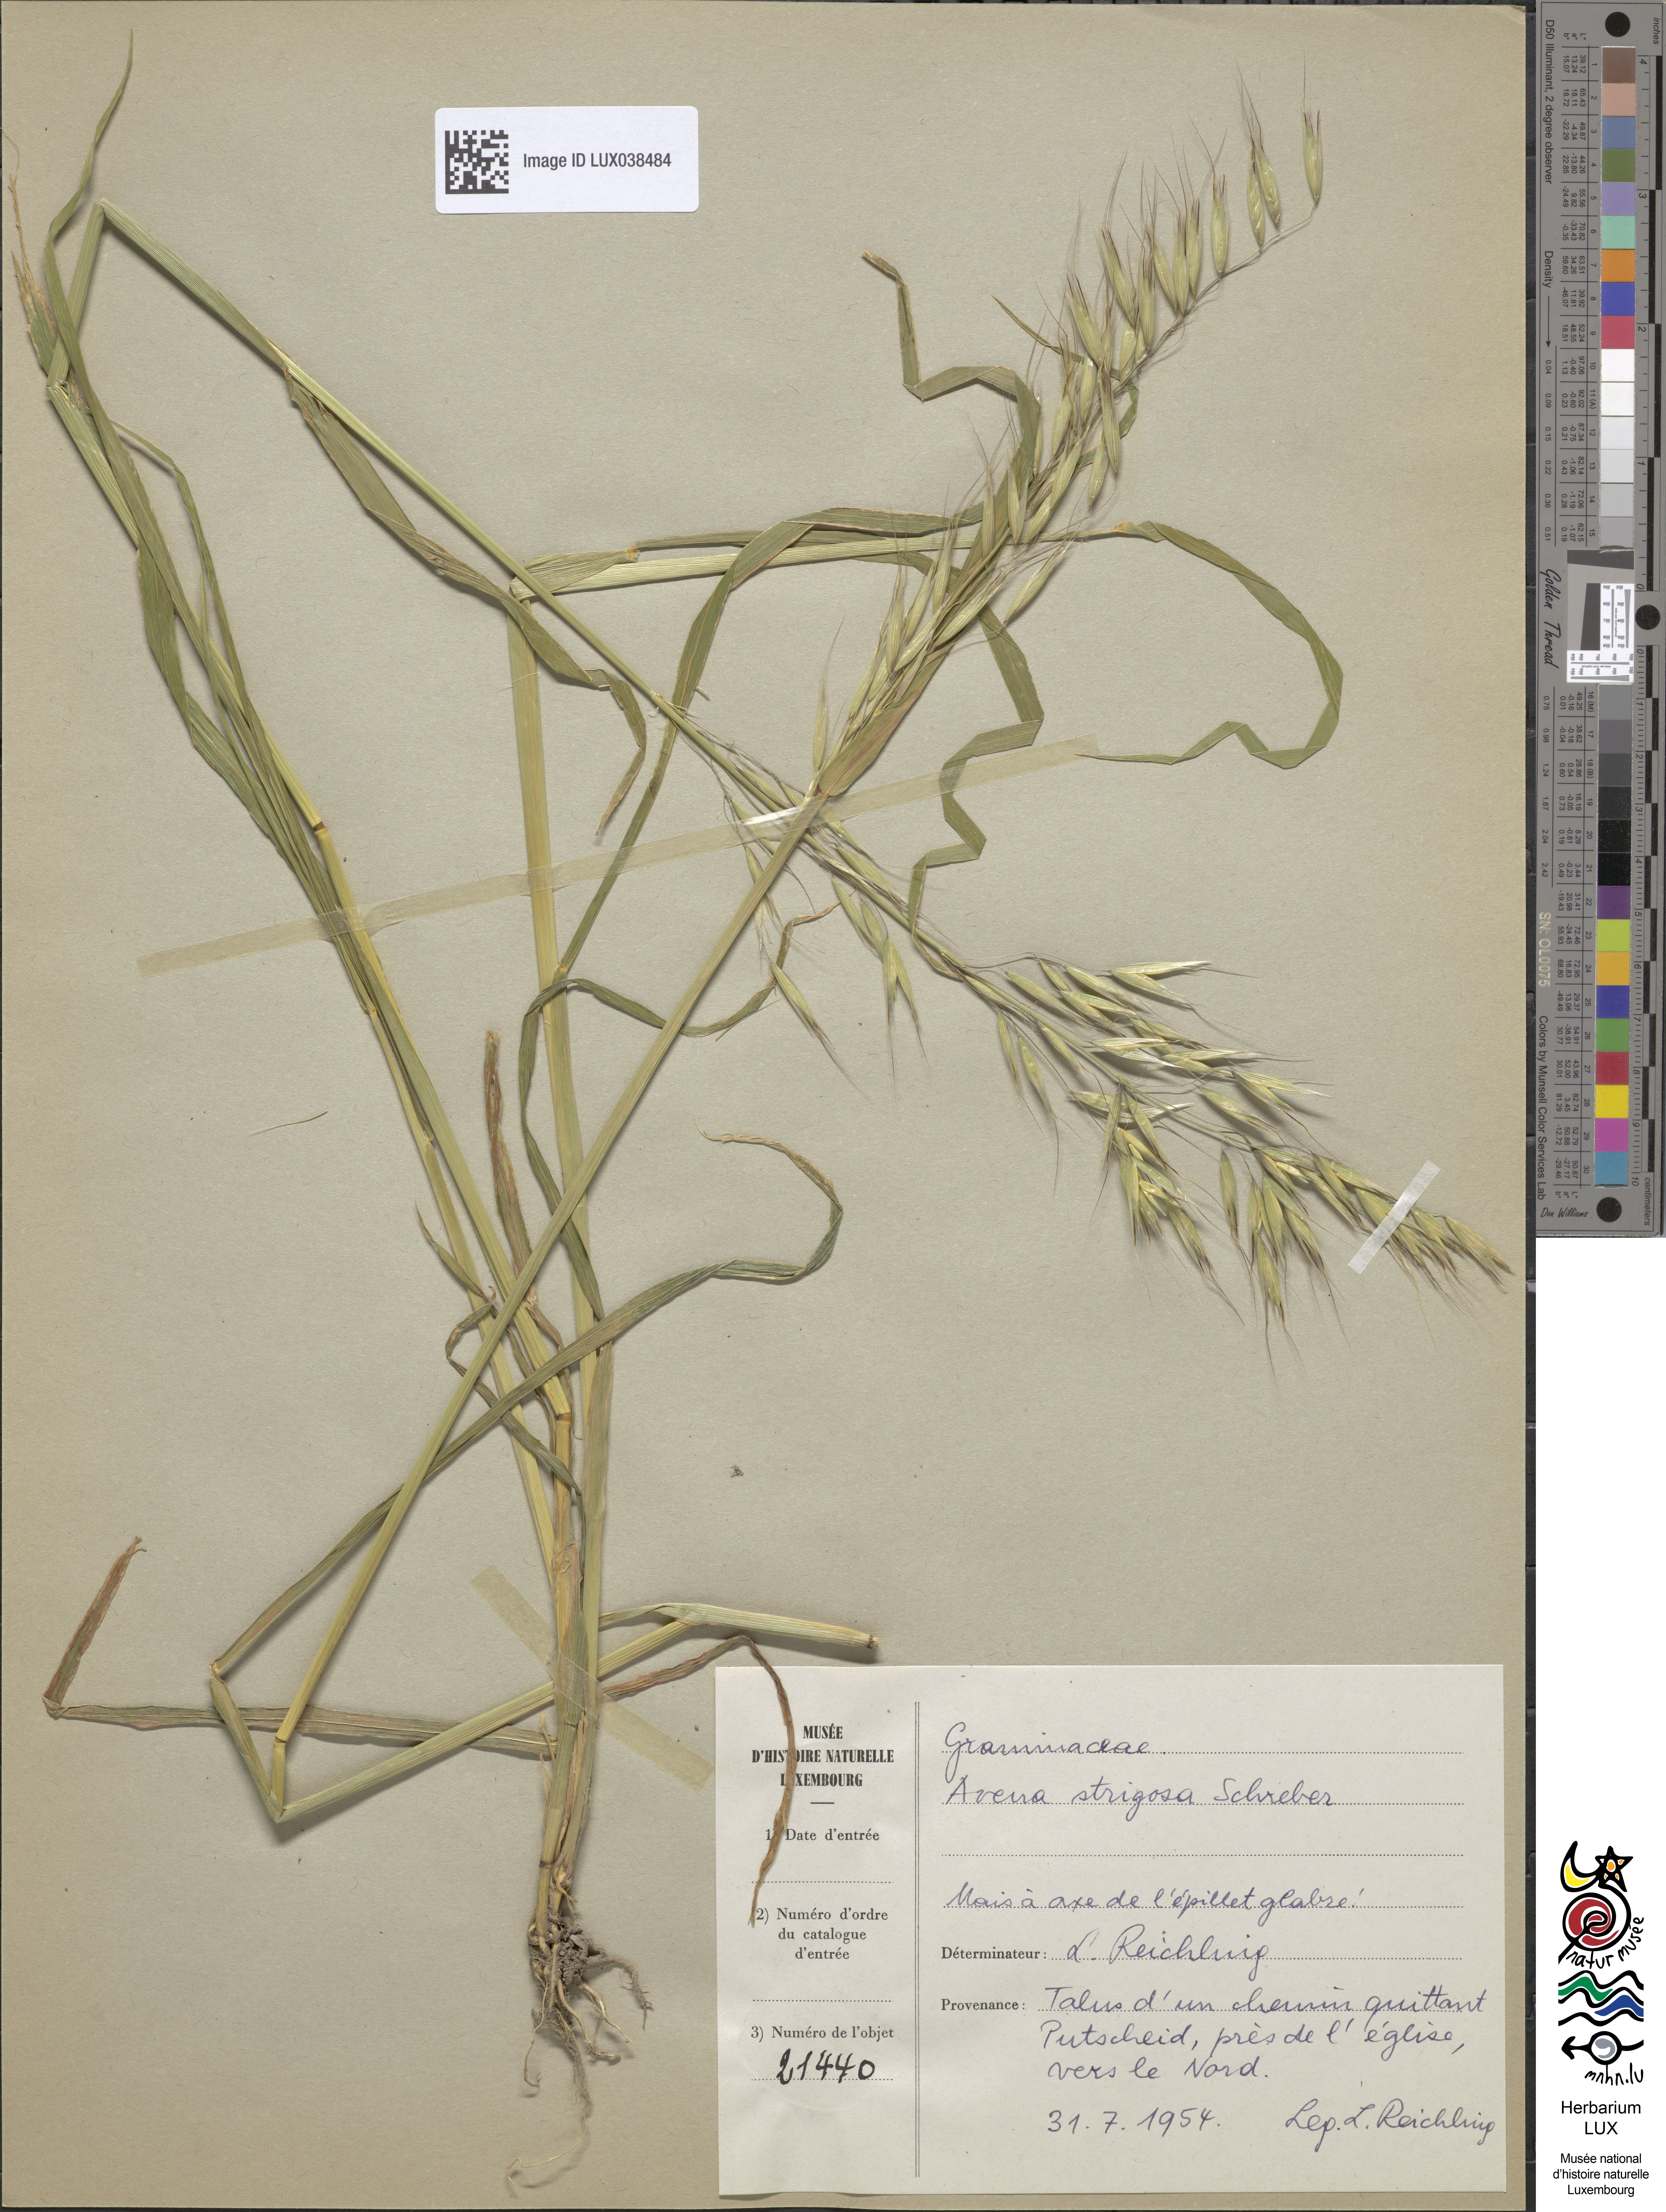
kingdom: Plantae
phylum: Tracheophyta
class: Liliopsida
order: Poales
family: Poaceae
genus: Avena
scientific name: Avena strigosa
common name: Bristle oat
